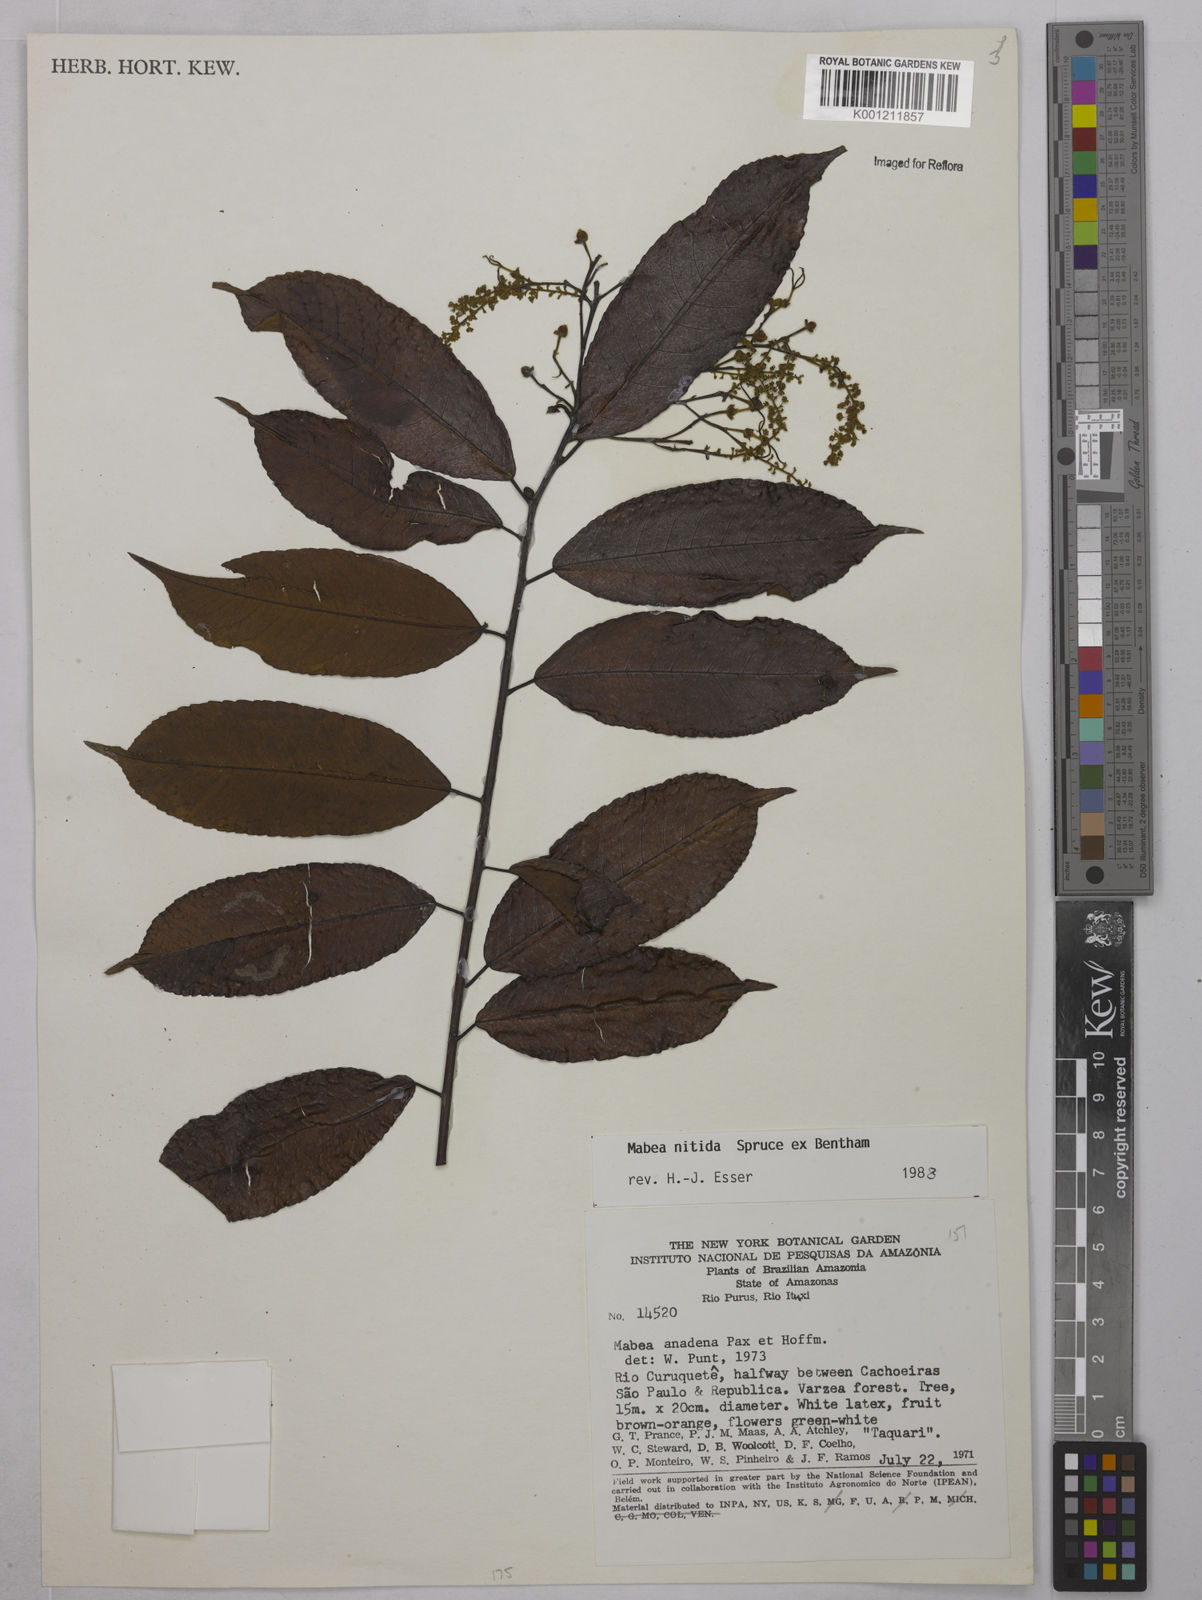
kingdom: Plantae
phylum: Tracheophyta
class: Magnoliopsida
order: Malpighiales
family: Euphorbiaceae
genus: Mabea
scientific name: Mabea nitida
